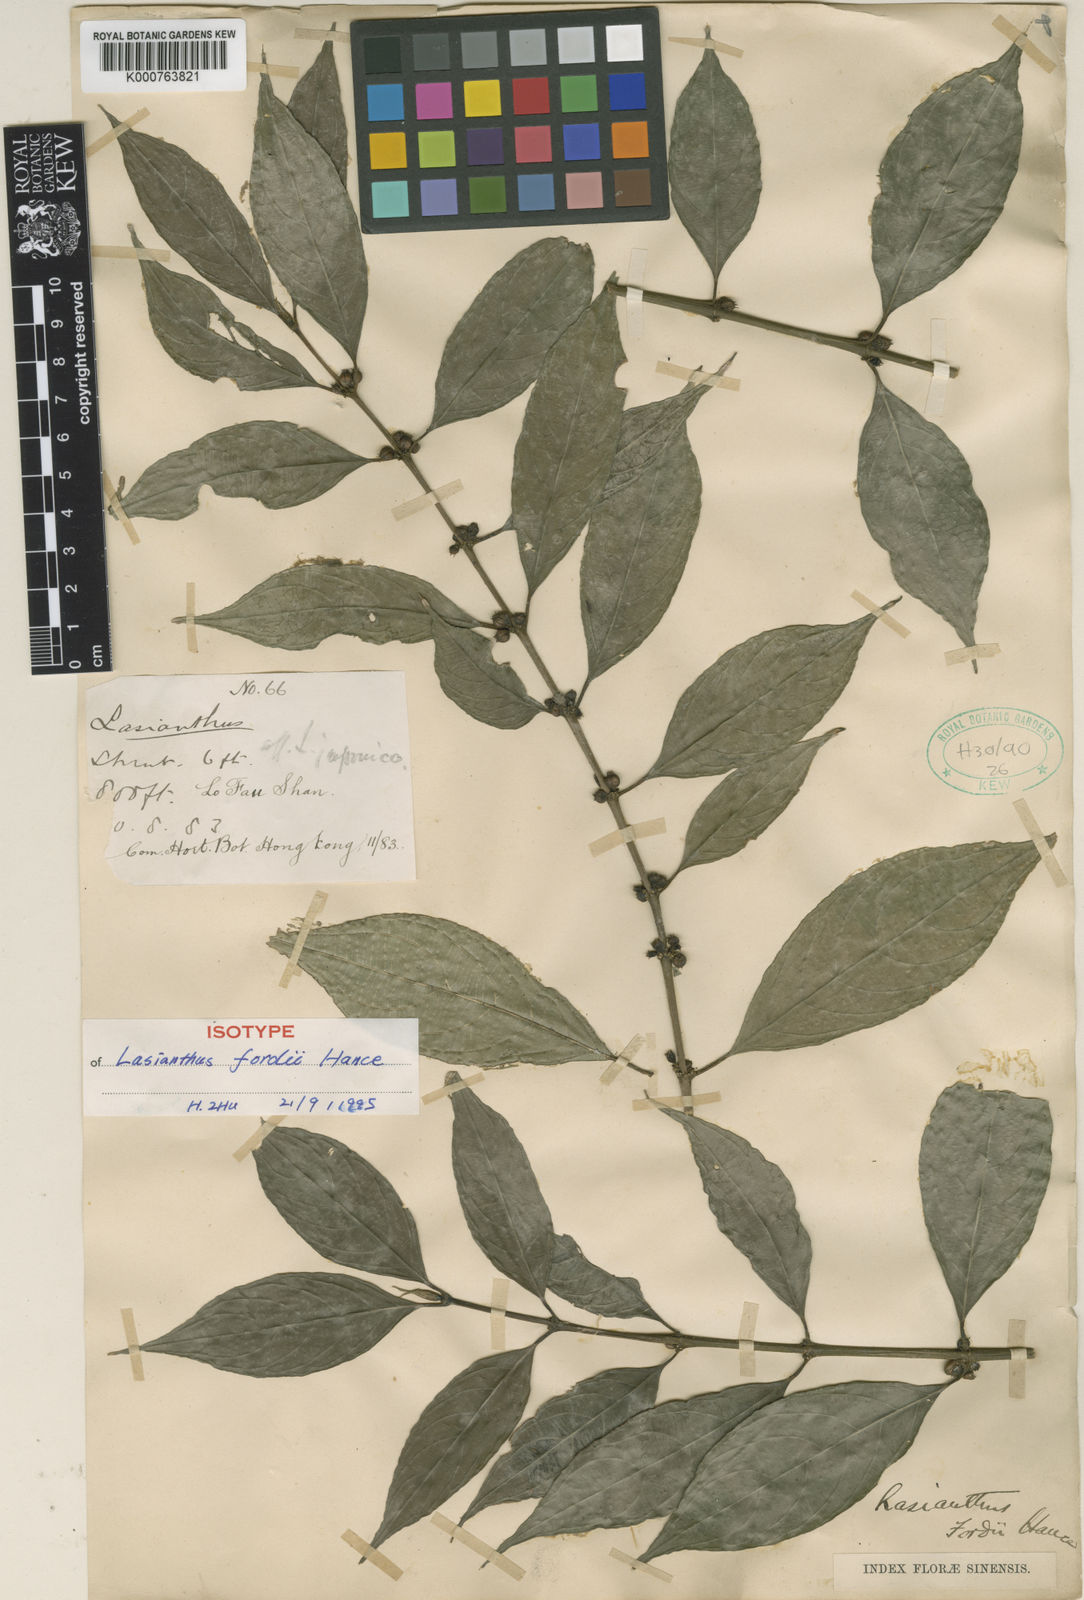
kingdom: Plantae
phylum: Tracheophyta
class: Magnoliopsida
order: Gentianales
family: Rubiaceae
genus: Lasianthus
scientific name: Lasianthus fordii
